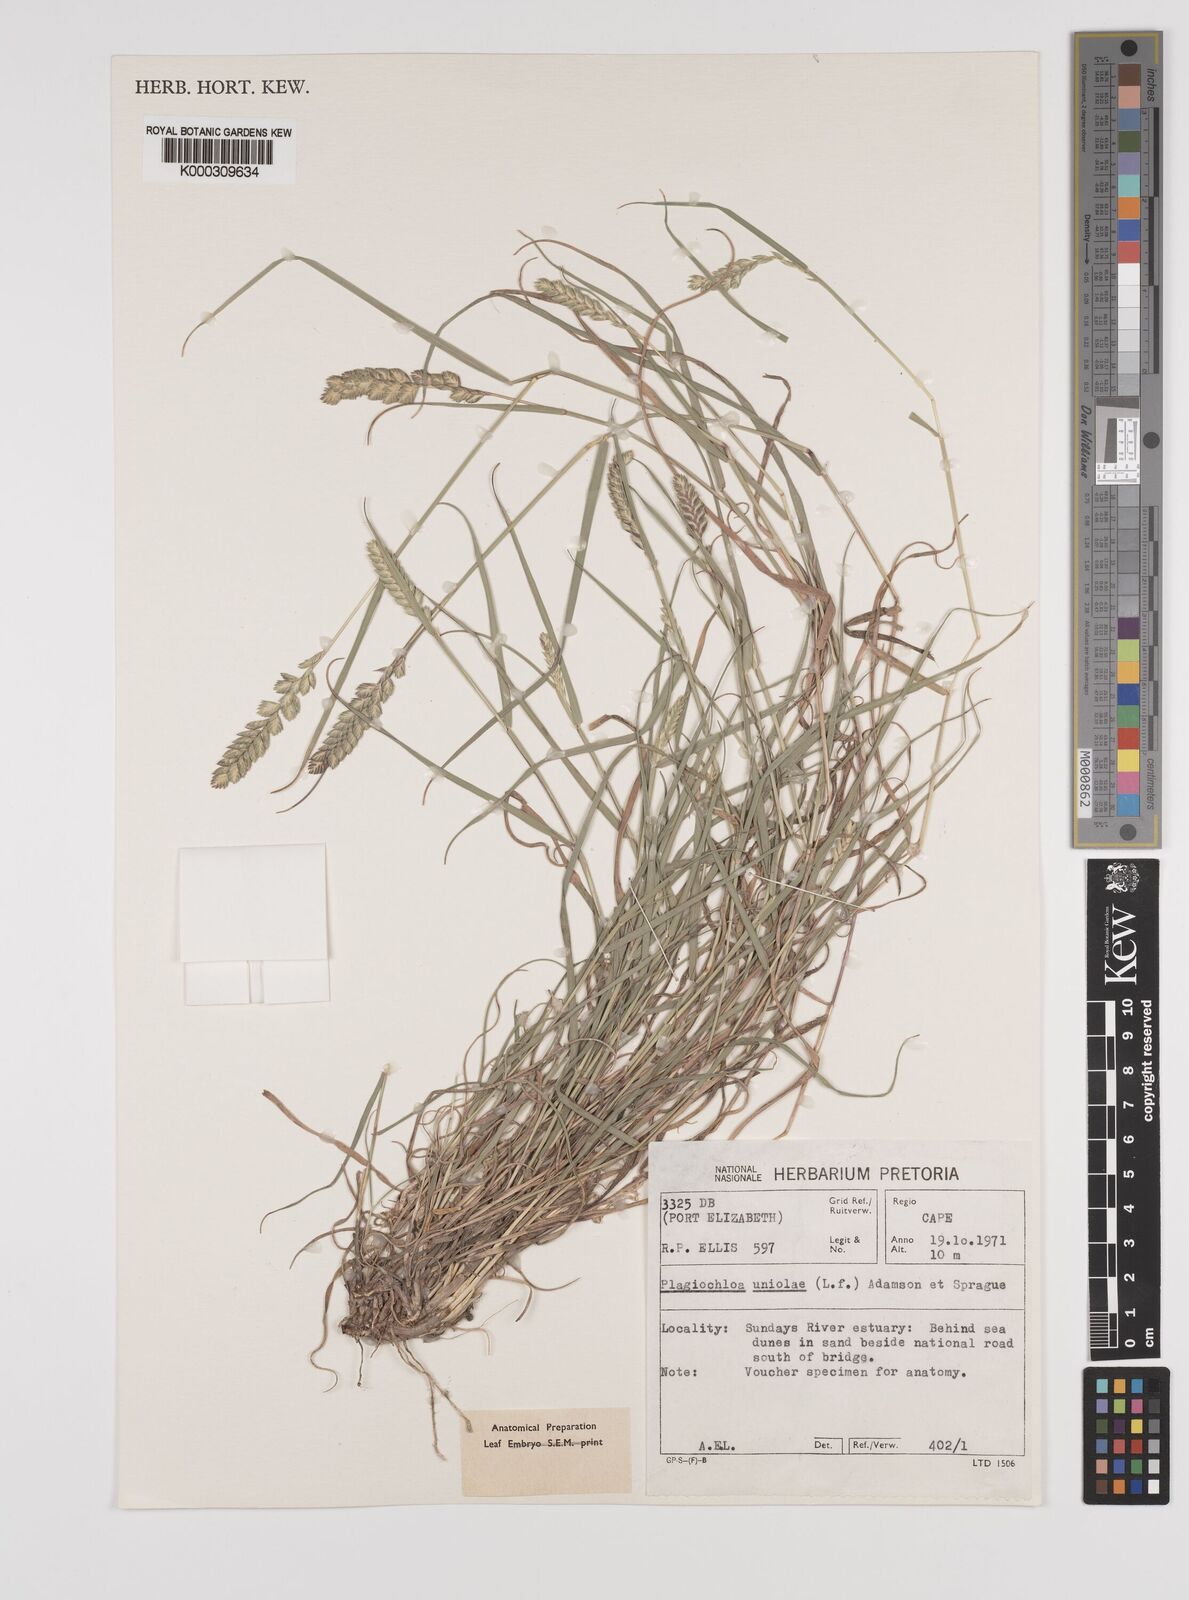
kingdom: Plantae
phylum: Tracheophyta
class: Liliopsida
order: Poales
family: Poaceae
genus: Tribolium
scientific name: Tribolium uniolae
